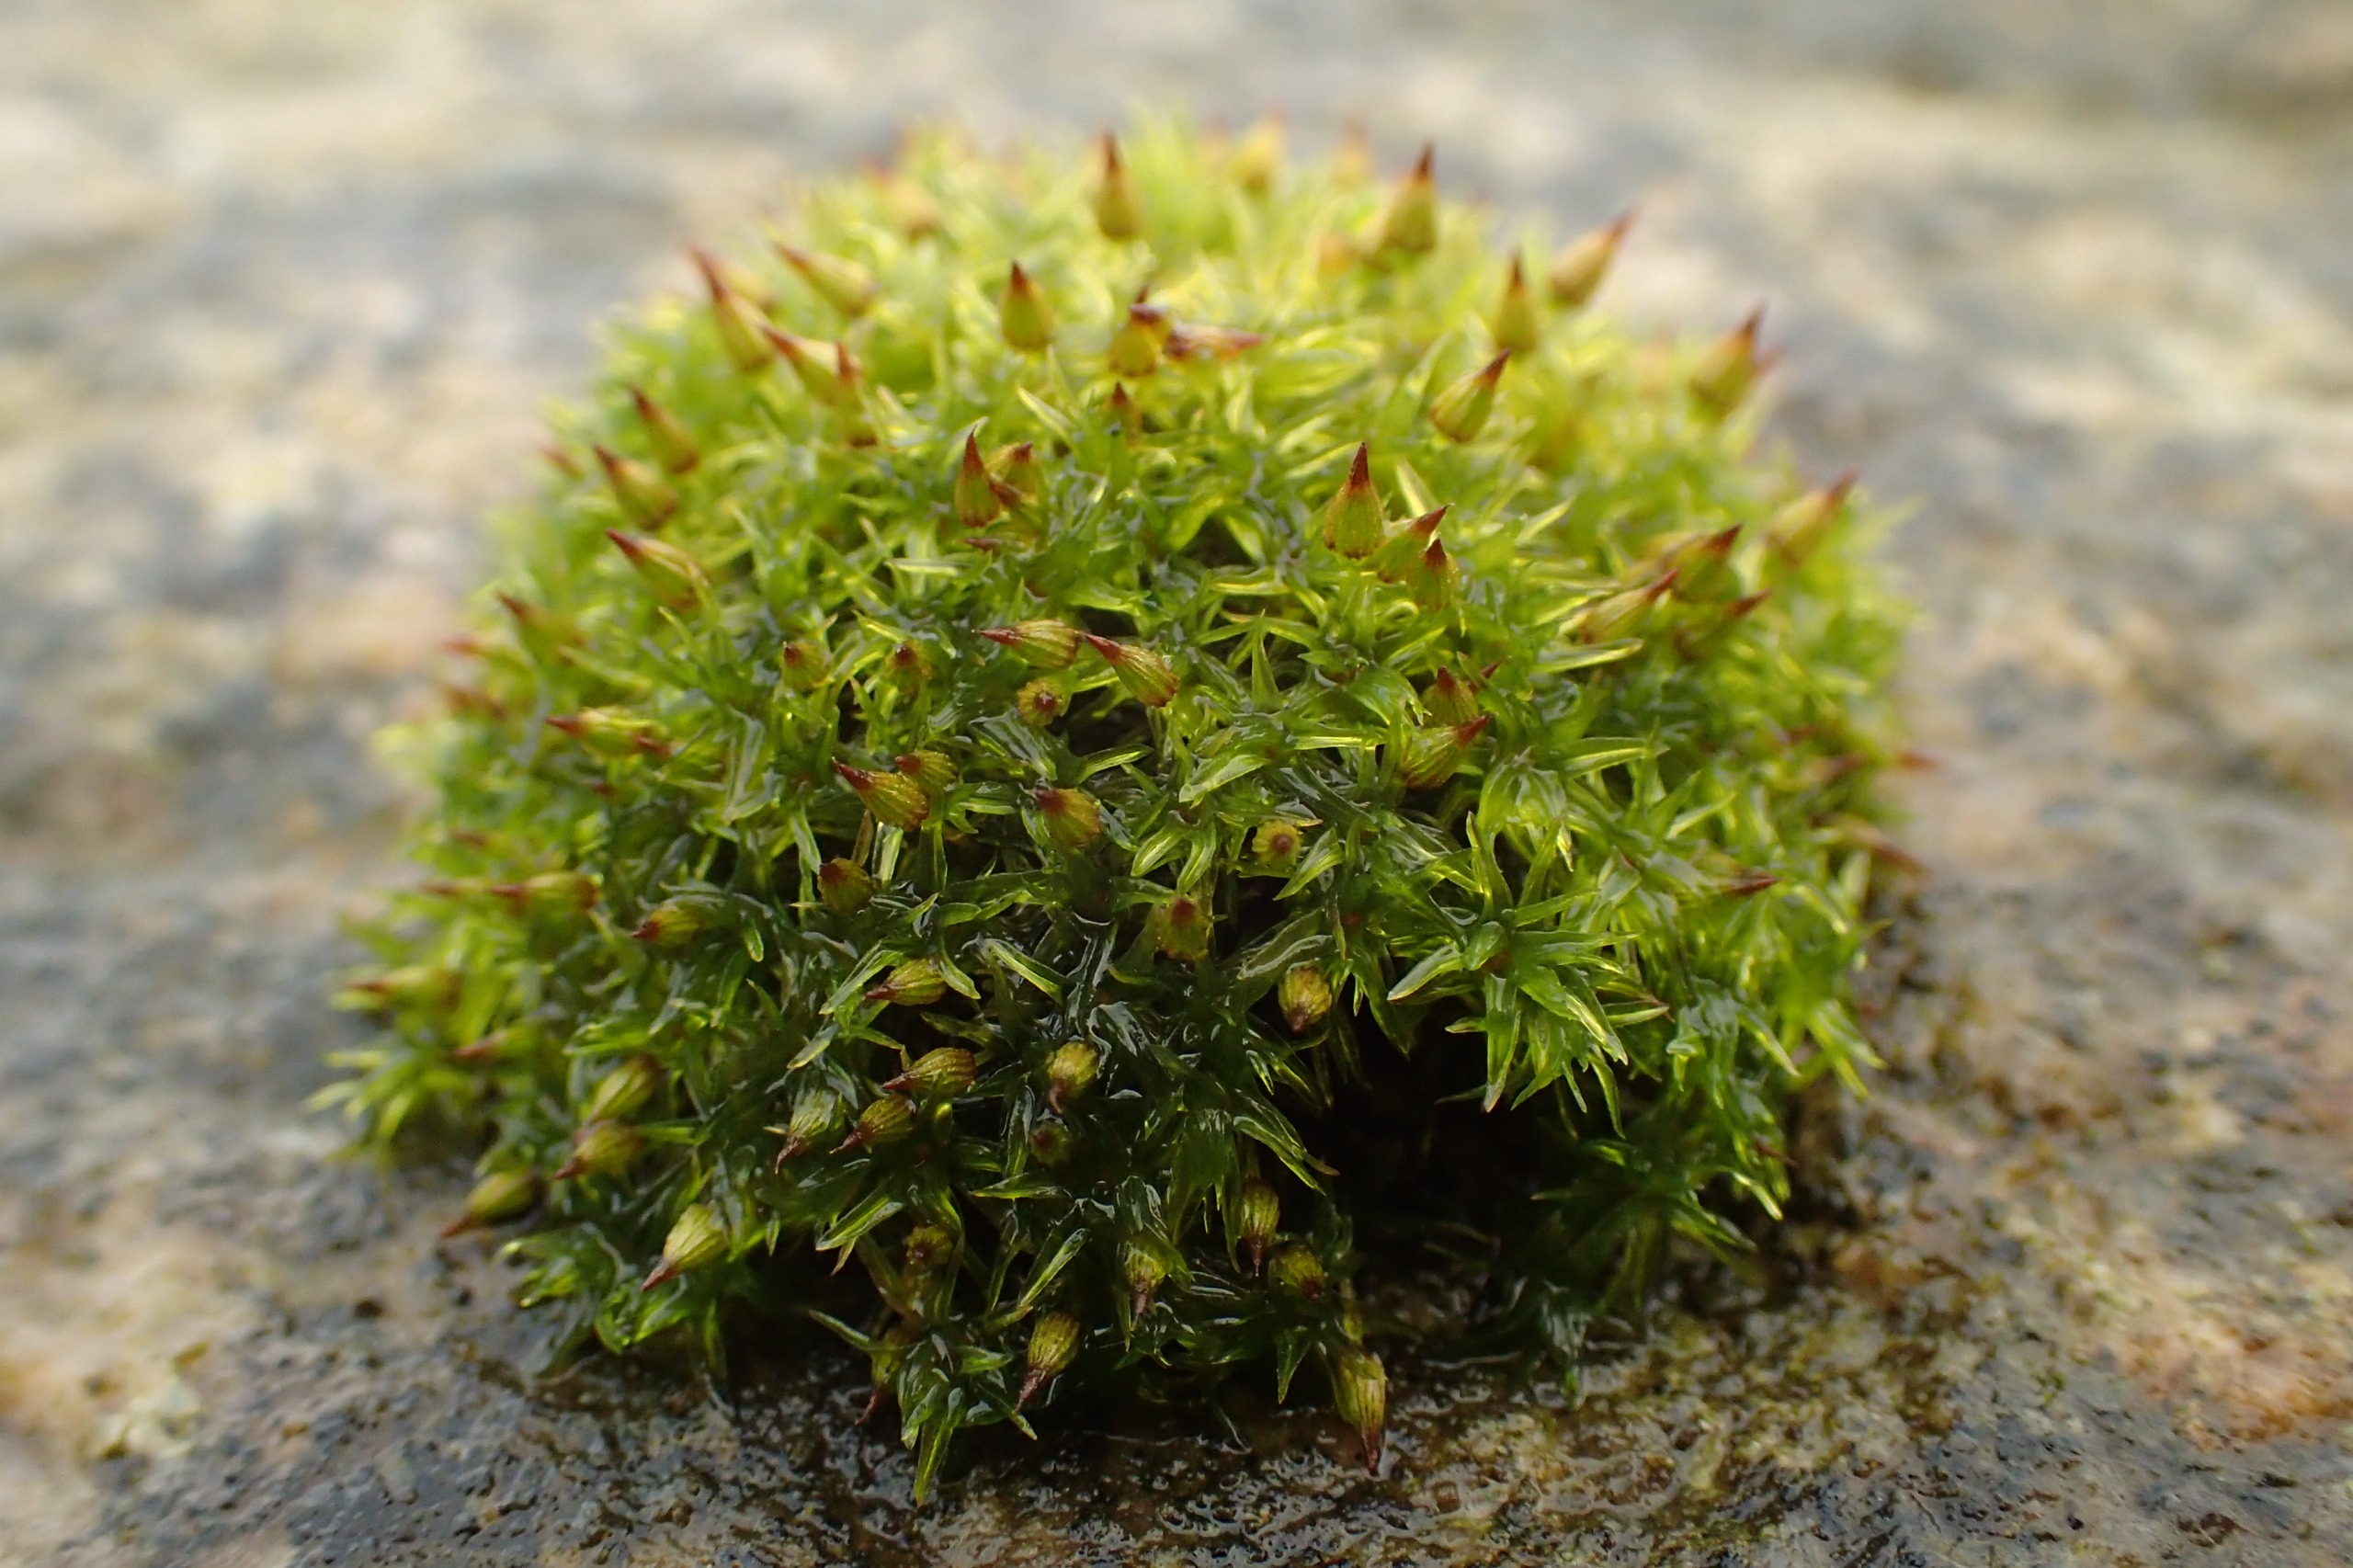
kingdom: Plantae
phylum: Bryophyta
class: Bryopsida
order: Orthotrichales
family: Orthotrichaceae
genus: Orthotrichum
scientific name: Orthotrichum pulchellum
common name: Smuk furehætte
